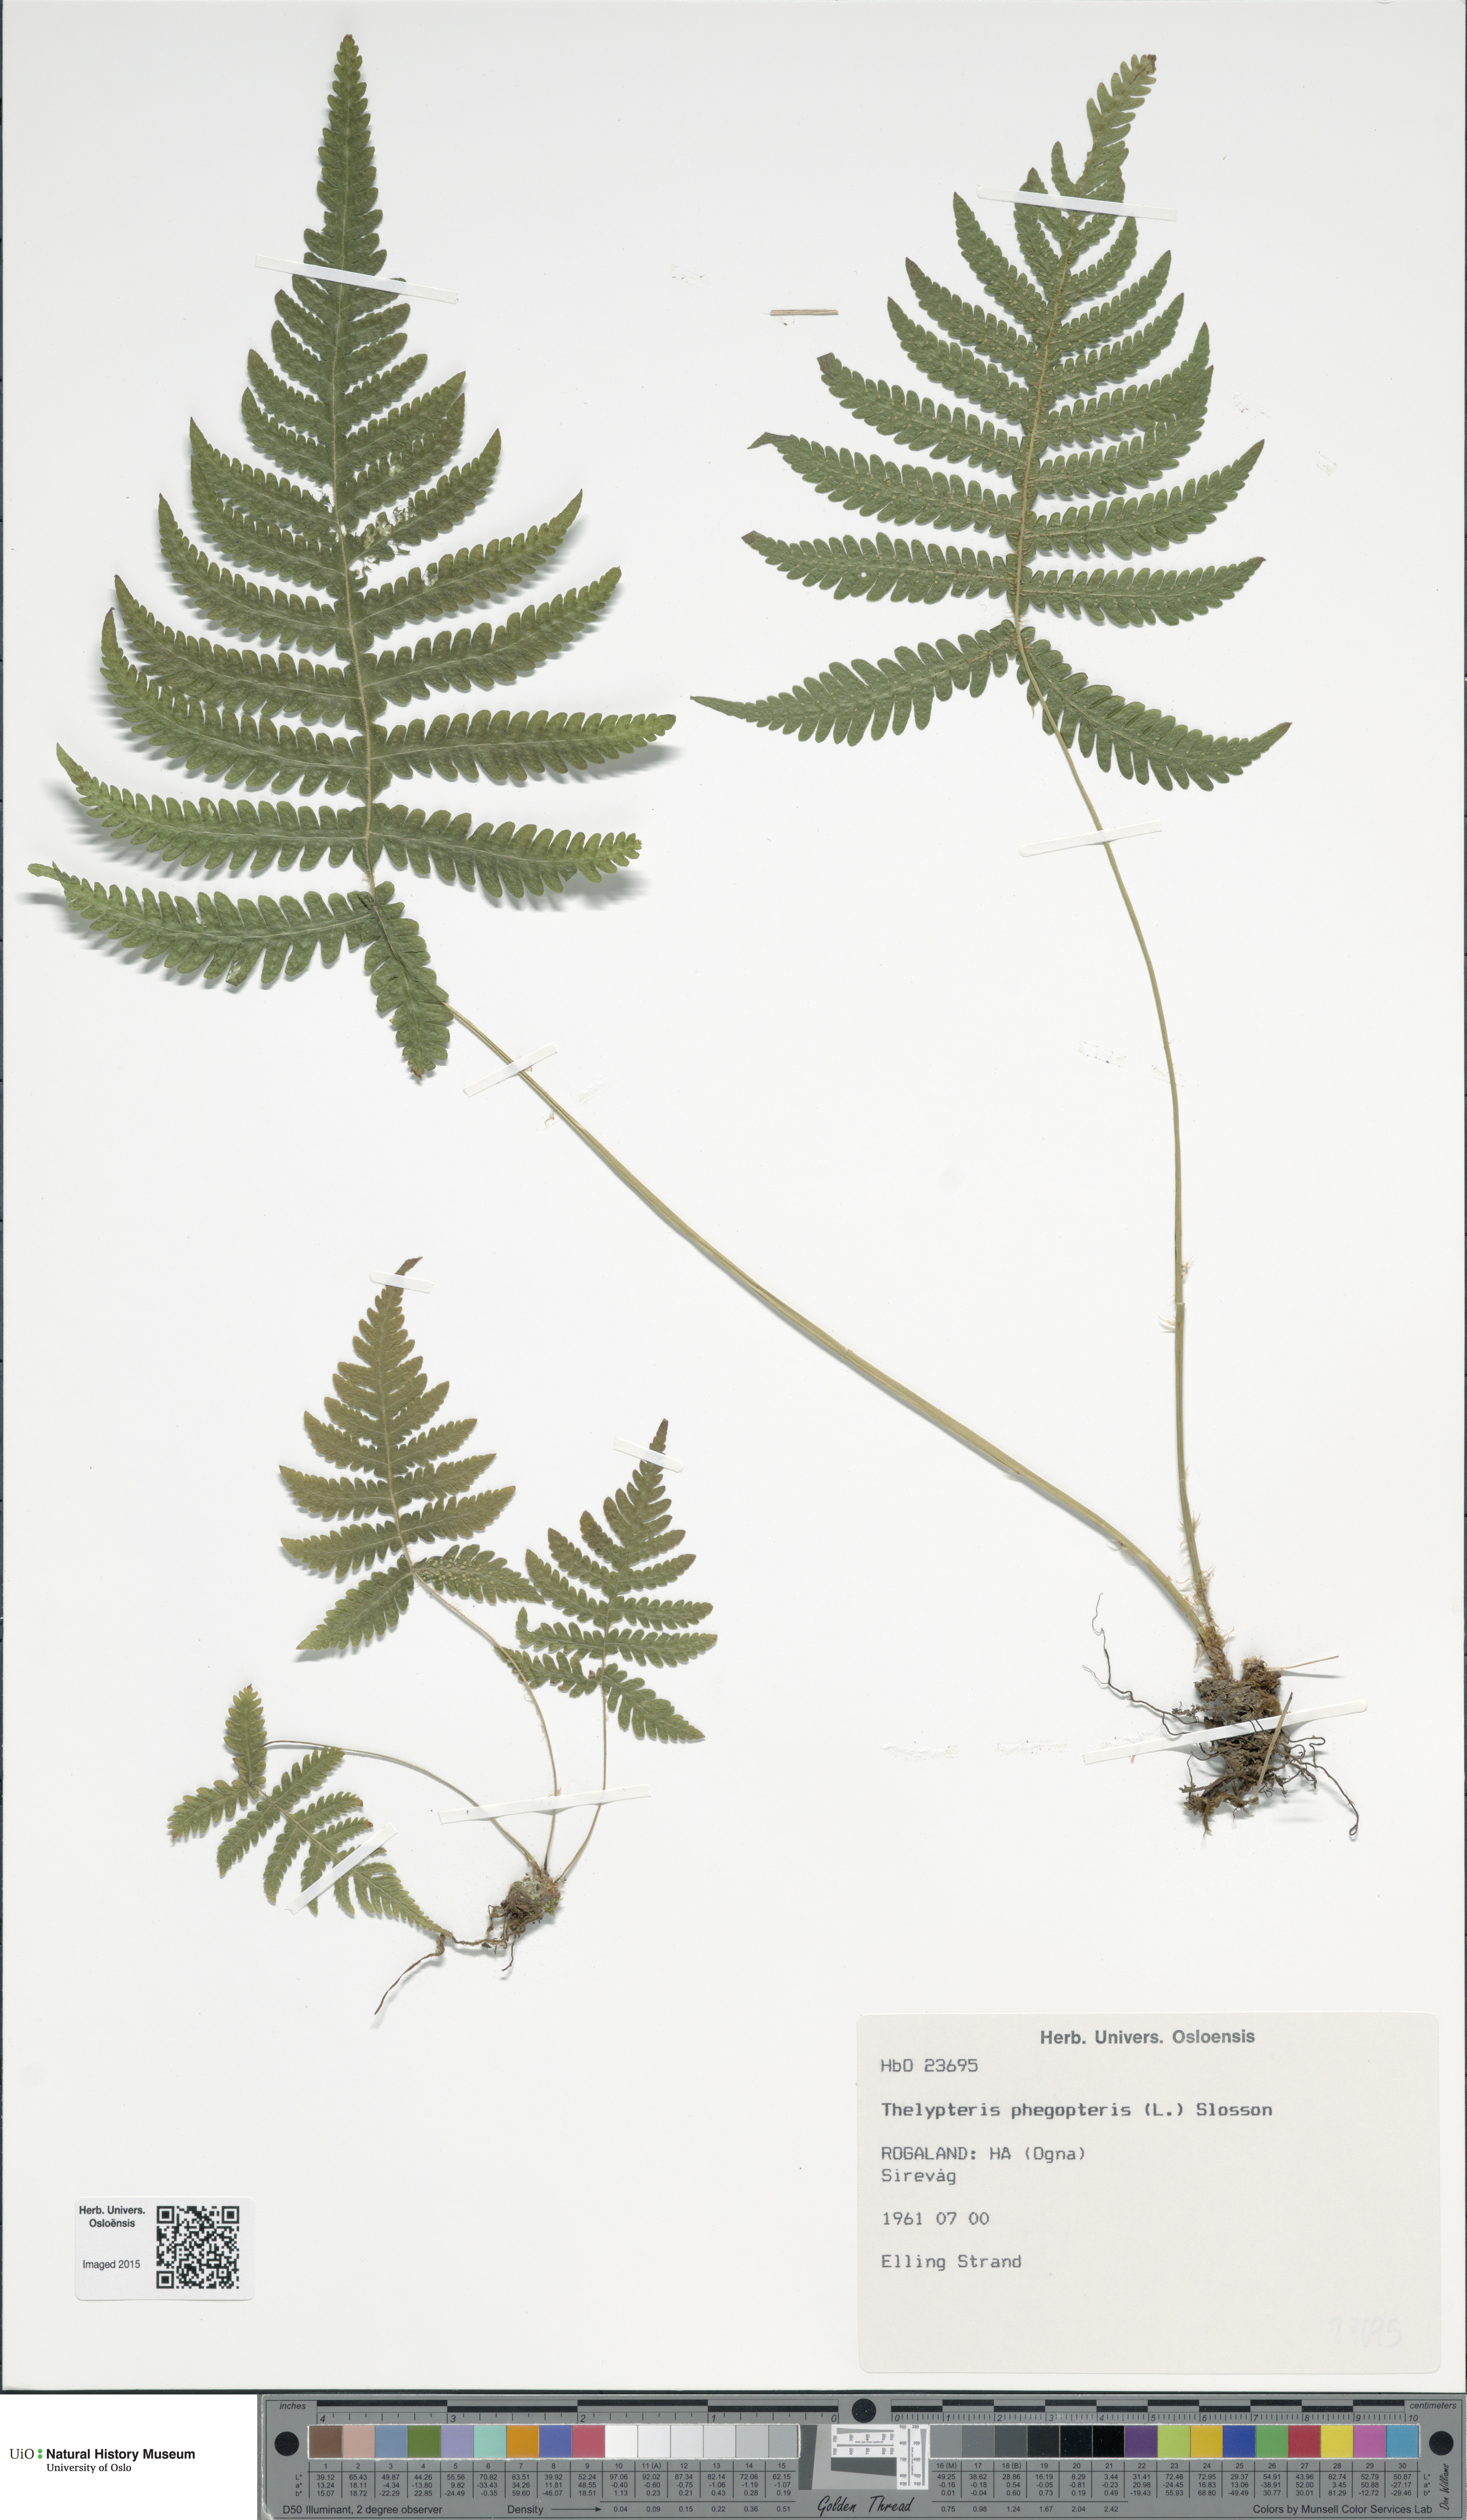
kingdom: Plantae
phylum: Tracheophyta
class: Polypodiopsida
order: Polypodiales
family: Thelypteridaceae
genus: Phegopteris
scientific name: Phegopteris connectilis
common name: Beech fern
